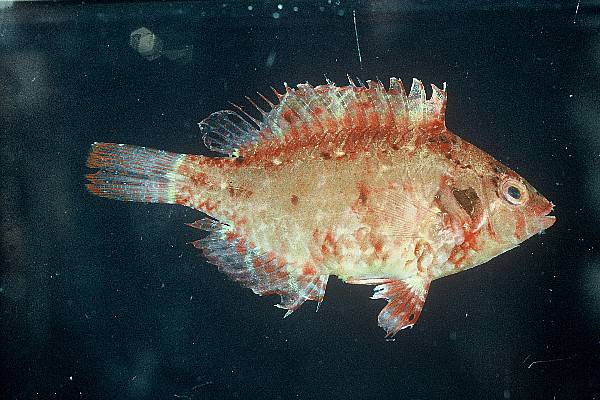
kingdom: Animalia
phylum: Chordata
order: Perciformes
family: Labridae
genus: Pteragogus
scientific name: Pteragogus flagellifer
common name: Cocktail wrasse
